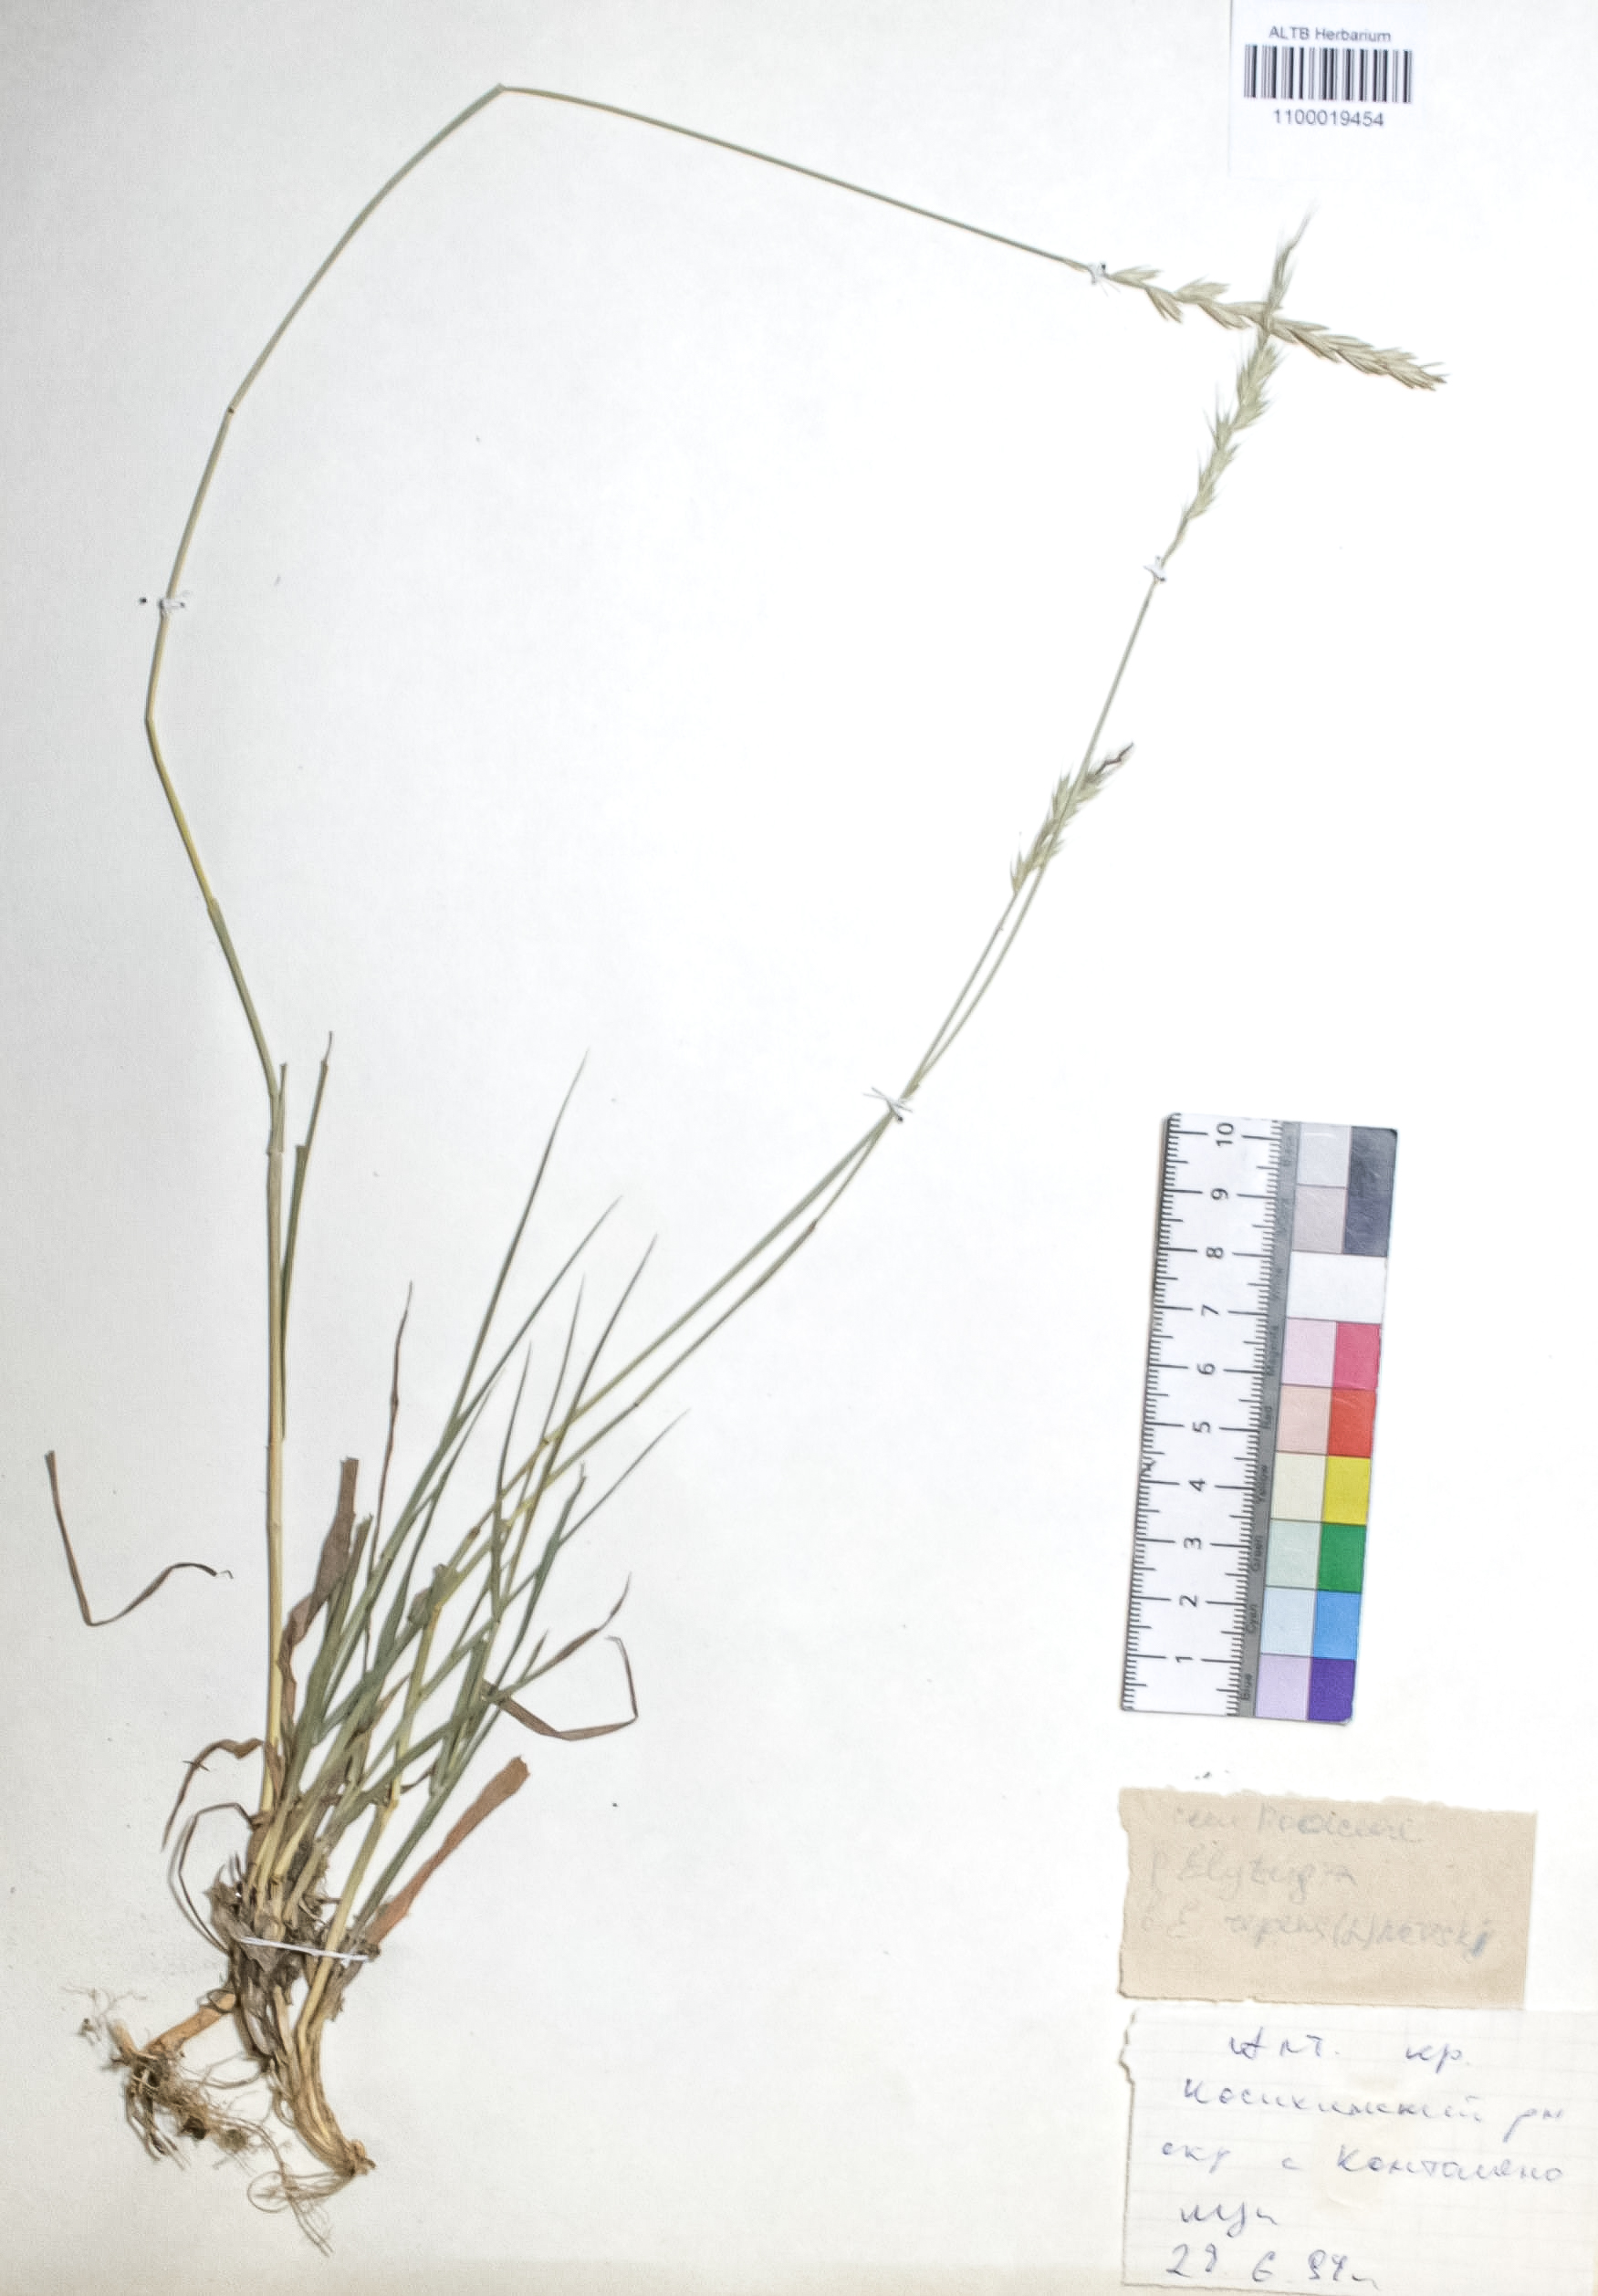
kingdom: Plantae
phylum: Tracheophyta
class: Liliopsida
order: Poales
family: Poaceae
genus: Elymus
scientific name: Elymus repens
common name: Quackgrass
